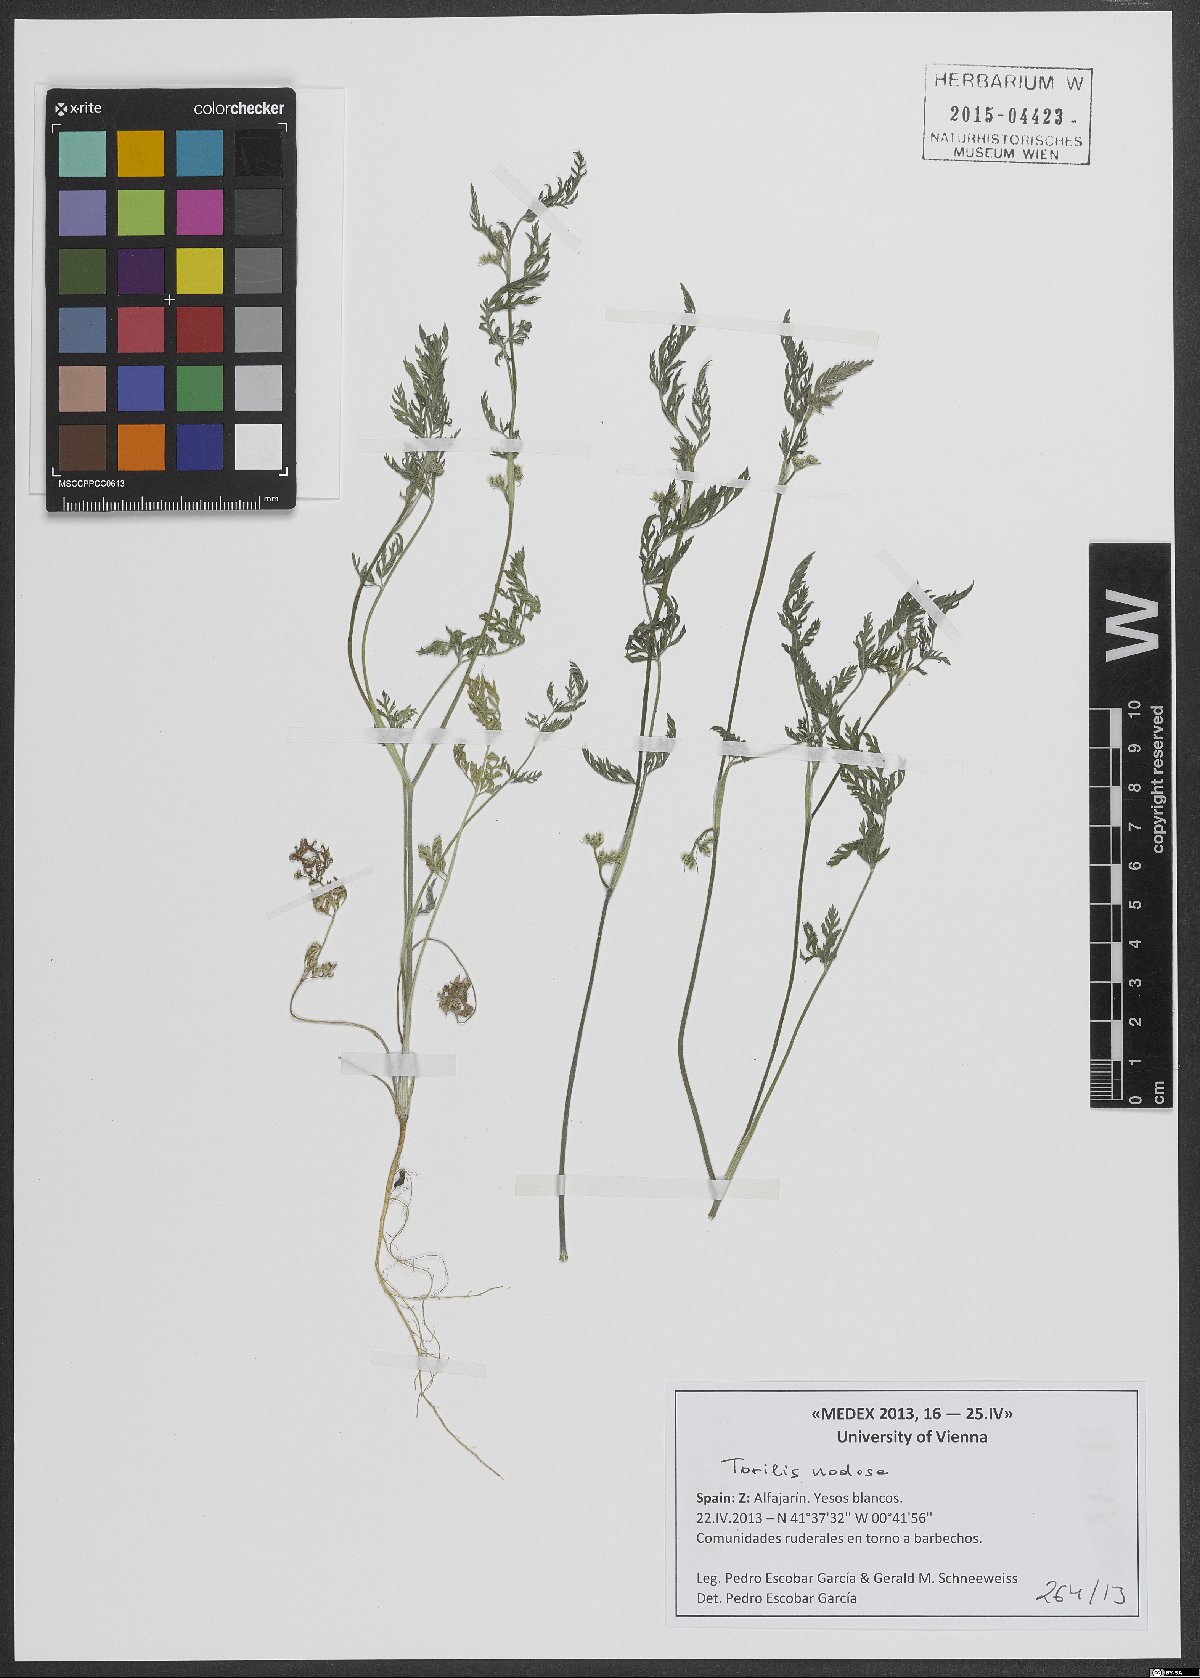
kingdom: Plantae
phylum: Tracheophyta
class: Magnoliopsida
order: Apiales
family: Apiaceae
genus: Torilis
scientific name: Torilis nodosa
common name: Knotted hedge-parsley
